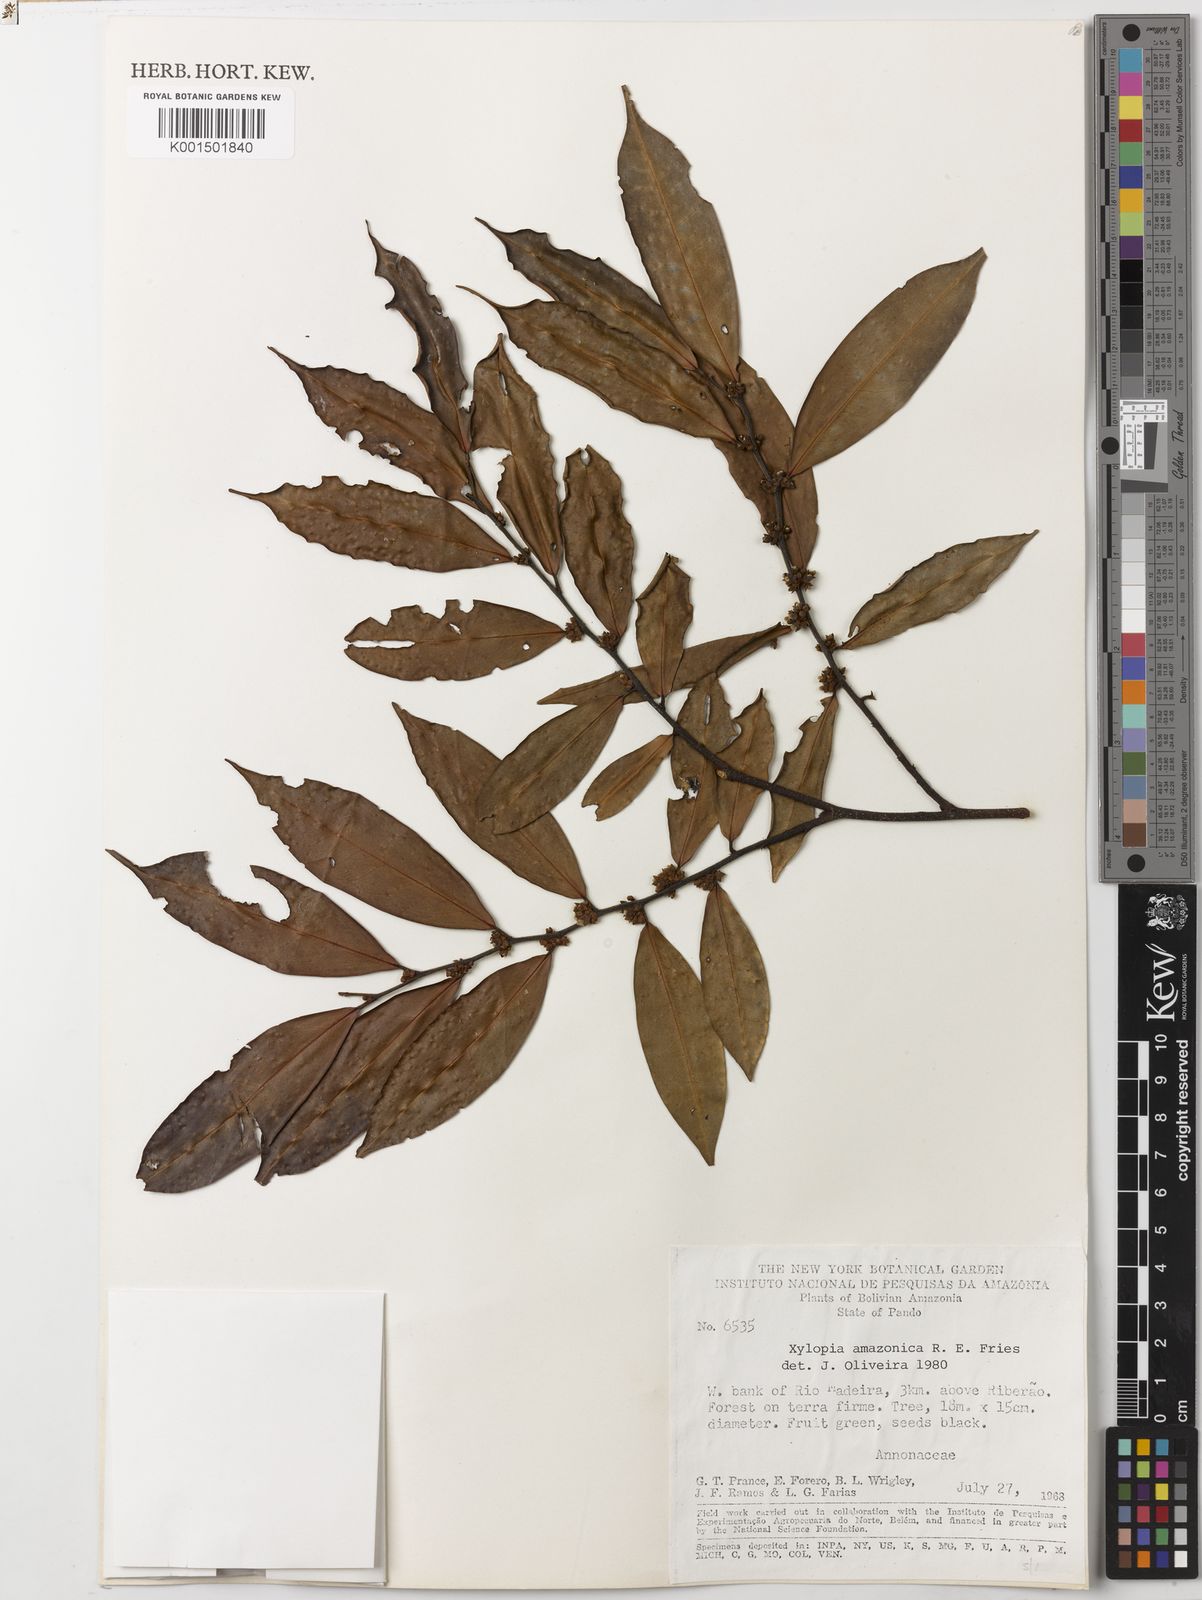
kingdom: Plantae
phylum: Tracheophyta
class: Magnoliopsida
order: Magnoliales
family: Annonaceae
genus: Xylopia
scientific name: Xylopia amazonica
